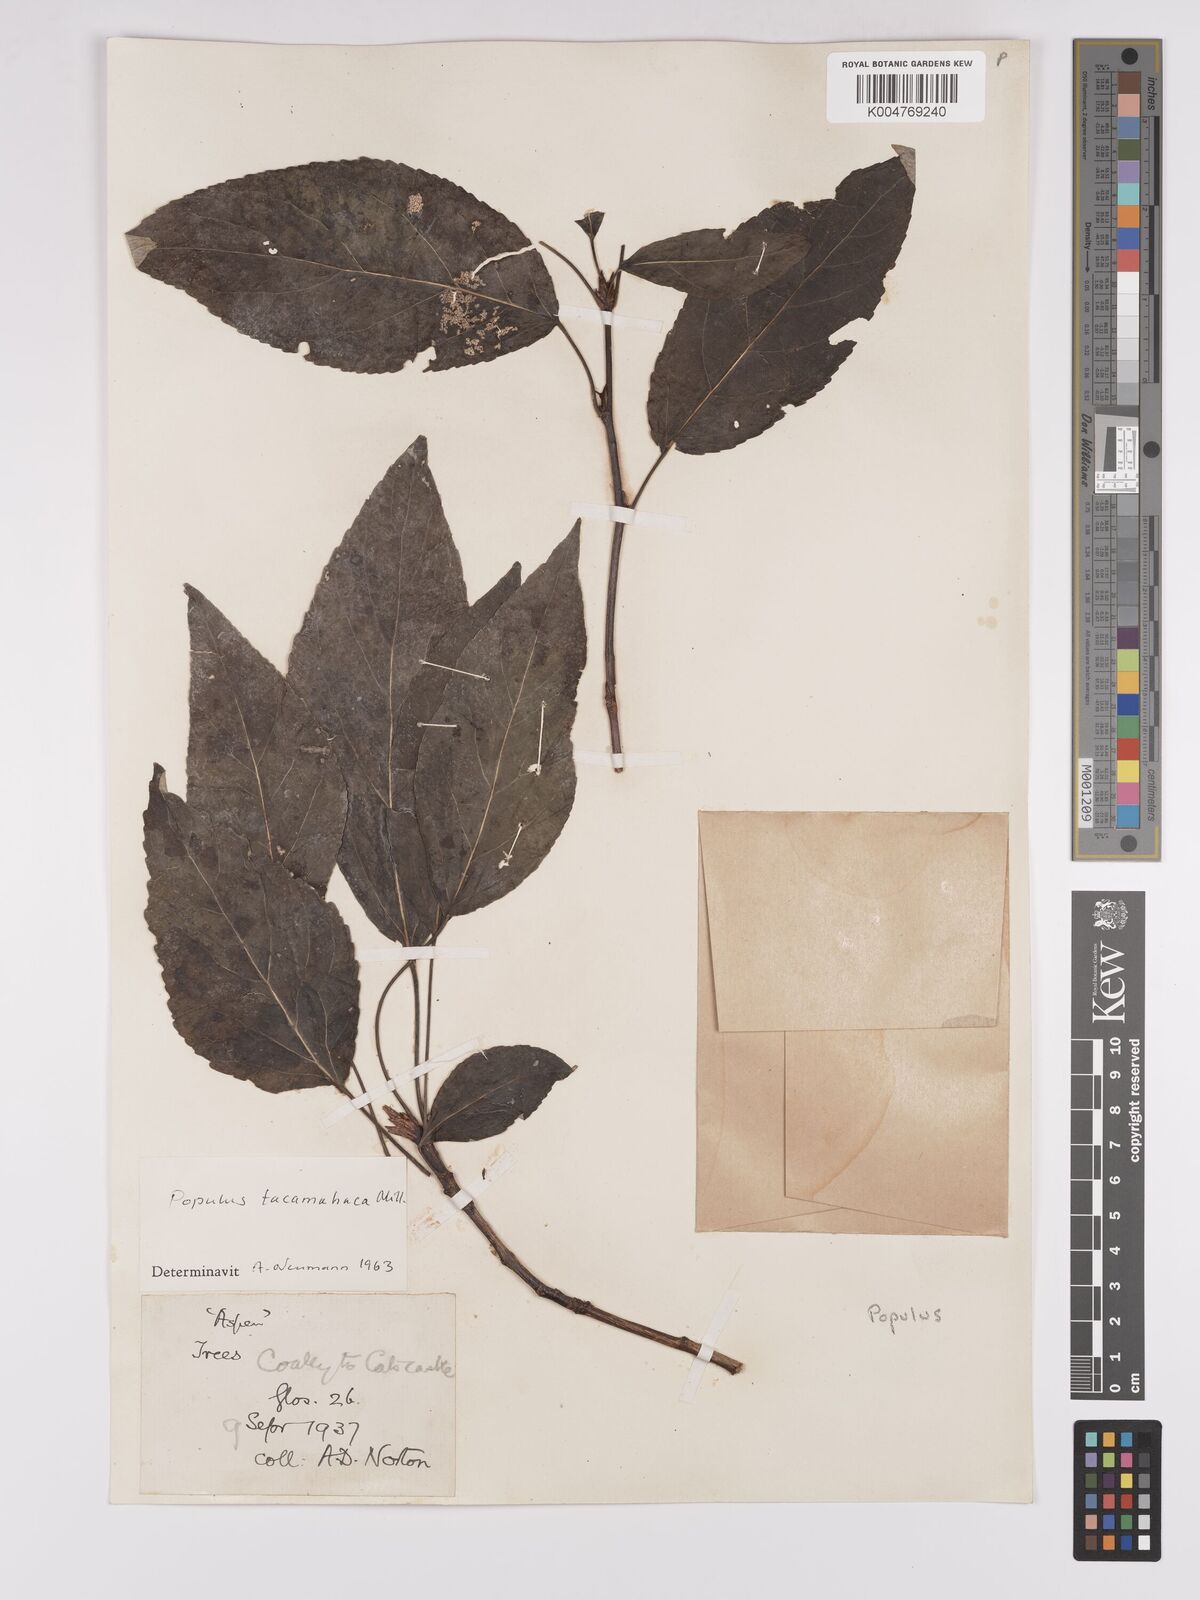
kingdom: Plantae
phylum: Tracheophyta
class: Magnoliopsida
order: Malpighiales
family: Salicaceae
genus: Populus
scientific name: Populus balsamifera
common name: Balsam poplar
